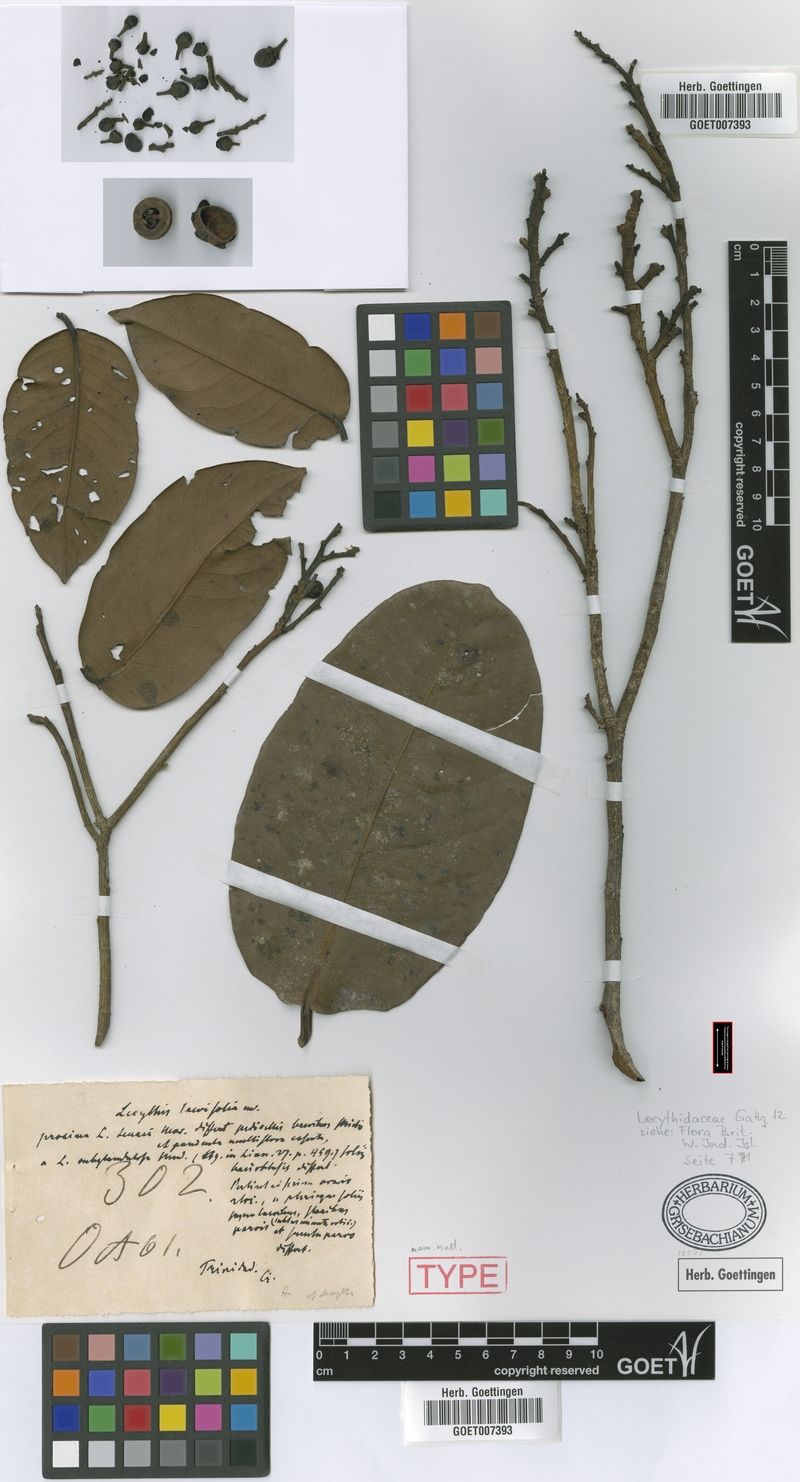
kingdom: Plantae
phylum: Tracheophyta
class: Magnoliopsida
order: Ericales
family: Lecythidaceae
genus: Eschweilera
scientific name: Eschweilera subglandulosa
